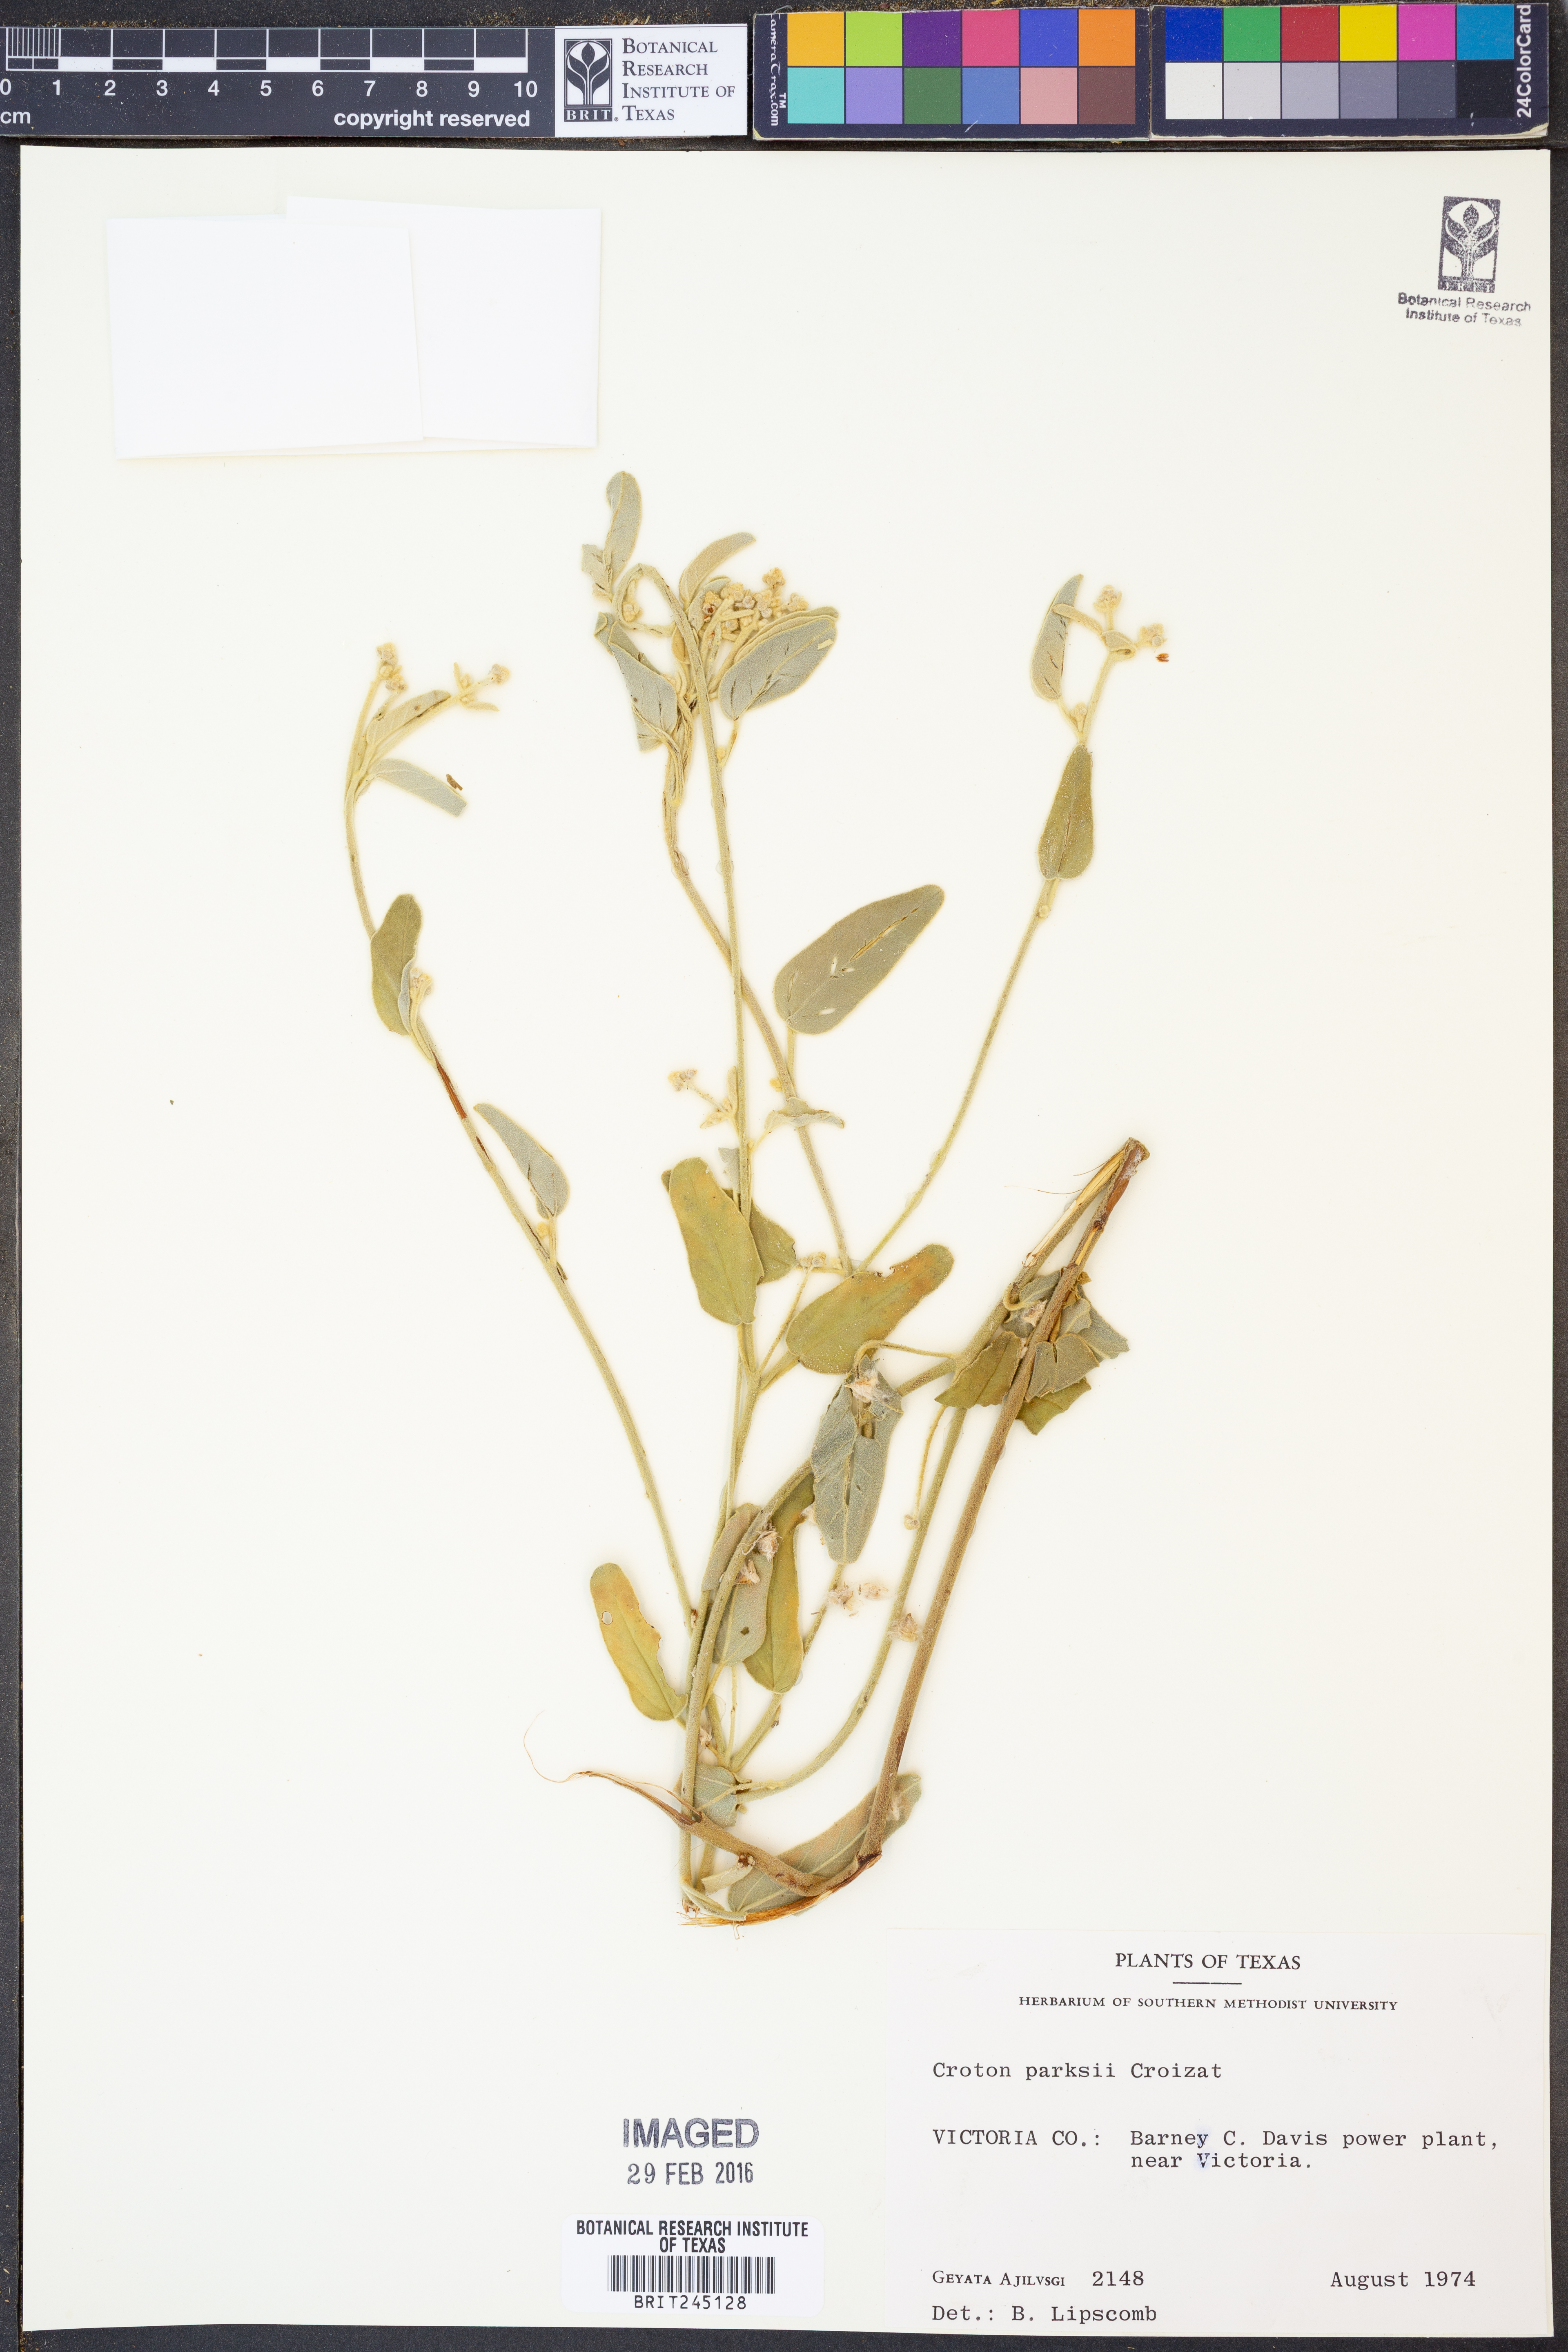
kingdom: Plantae
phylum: Tracheophyta
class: Magnoliopsida
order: Malpighiales
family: Euphorbiaceae
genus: Croton
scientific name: Croton parksii
